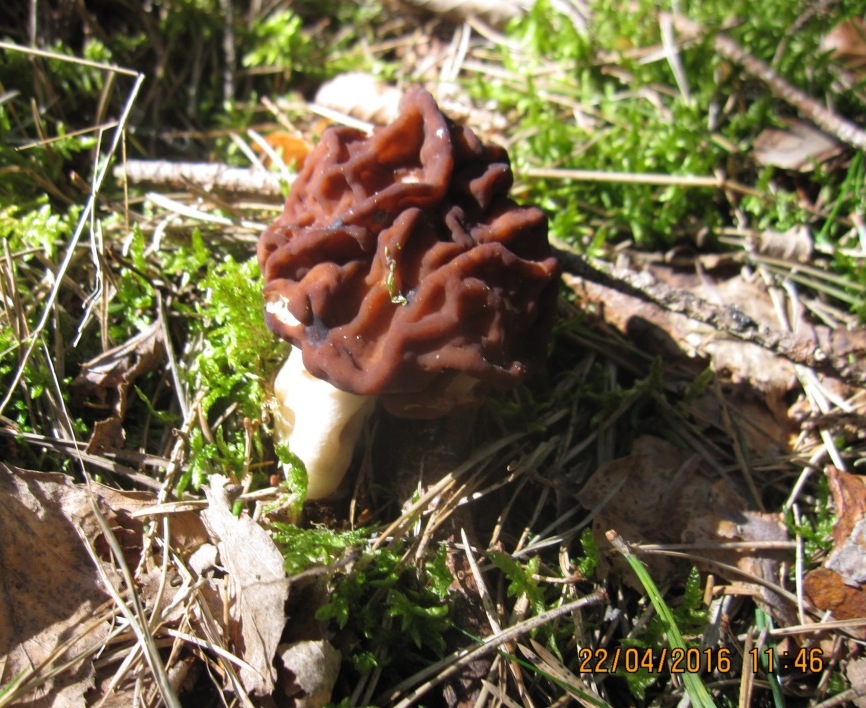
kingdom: Fungi
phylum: Ascomycota
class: Pezizomycetes
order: Pezizales
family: Discinaceae
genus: Gyromitra
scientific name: Gyromitra esculenta
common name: ægte stenmorkel
